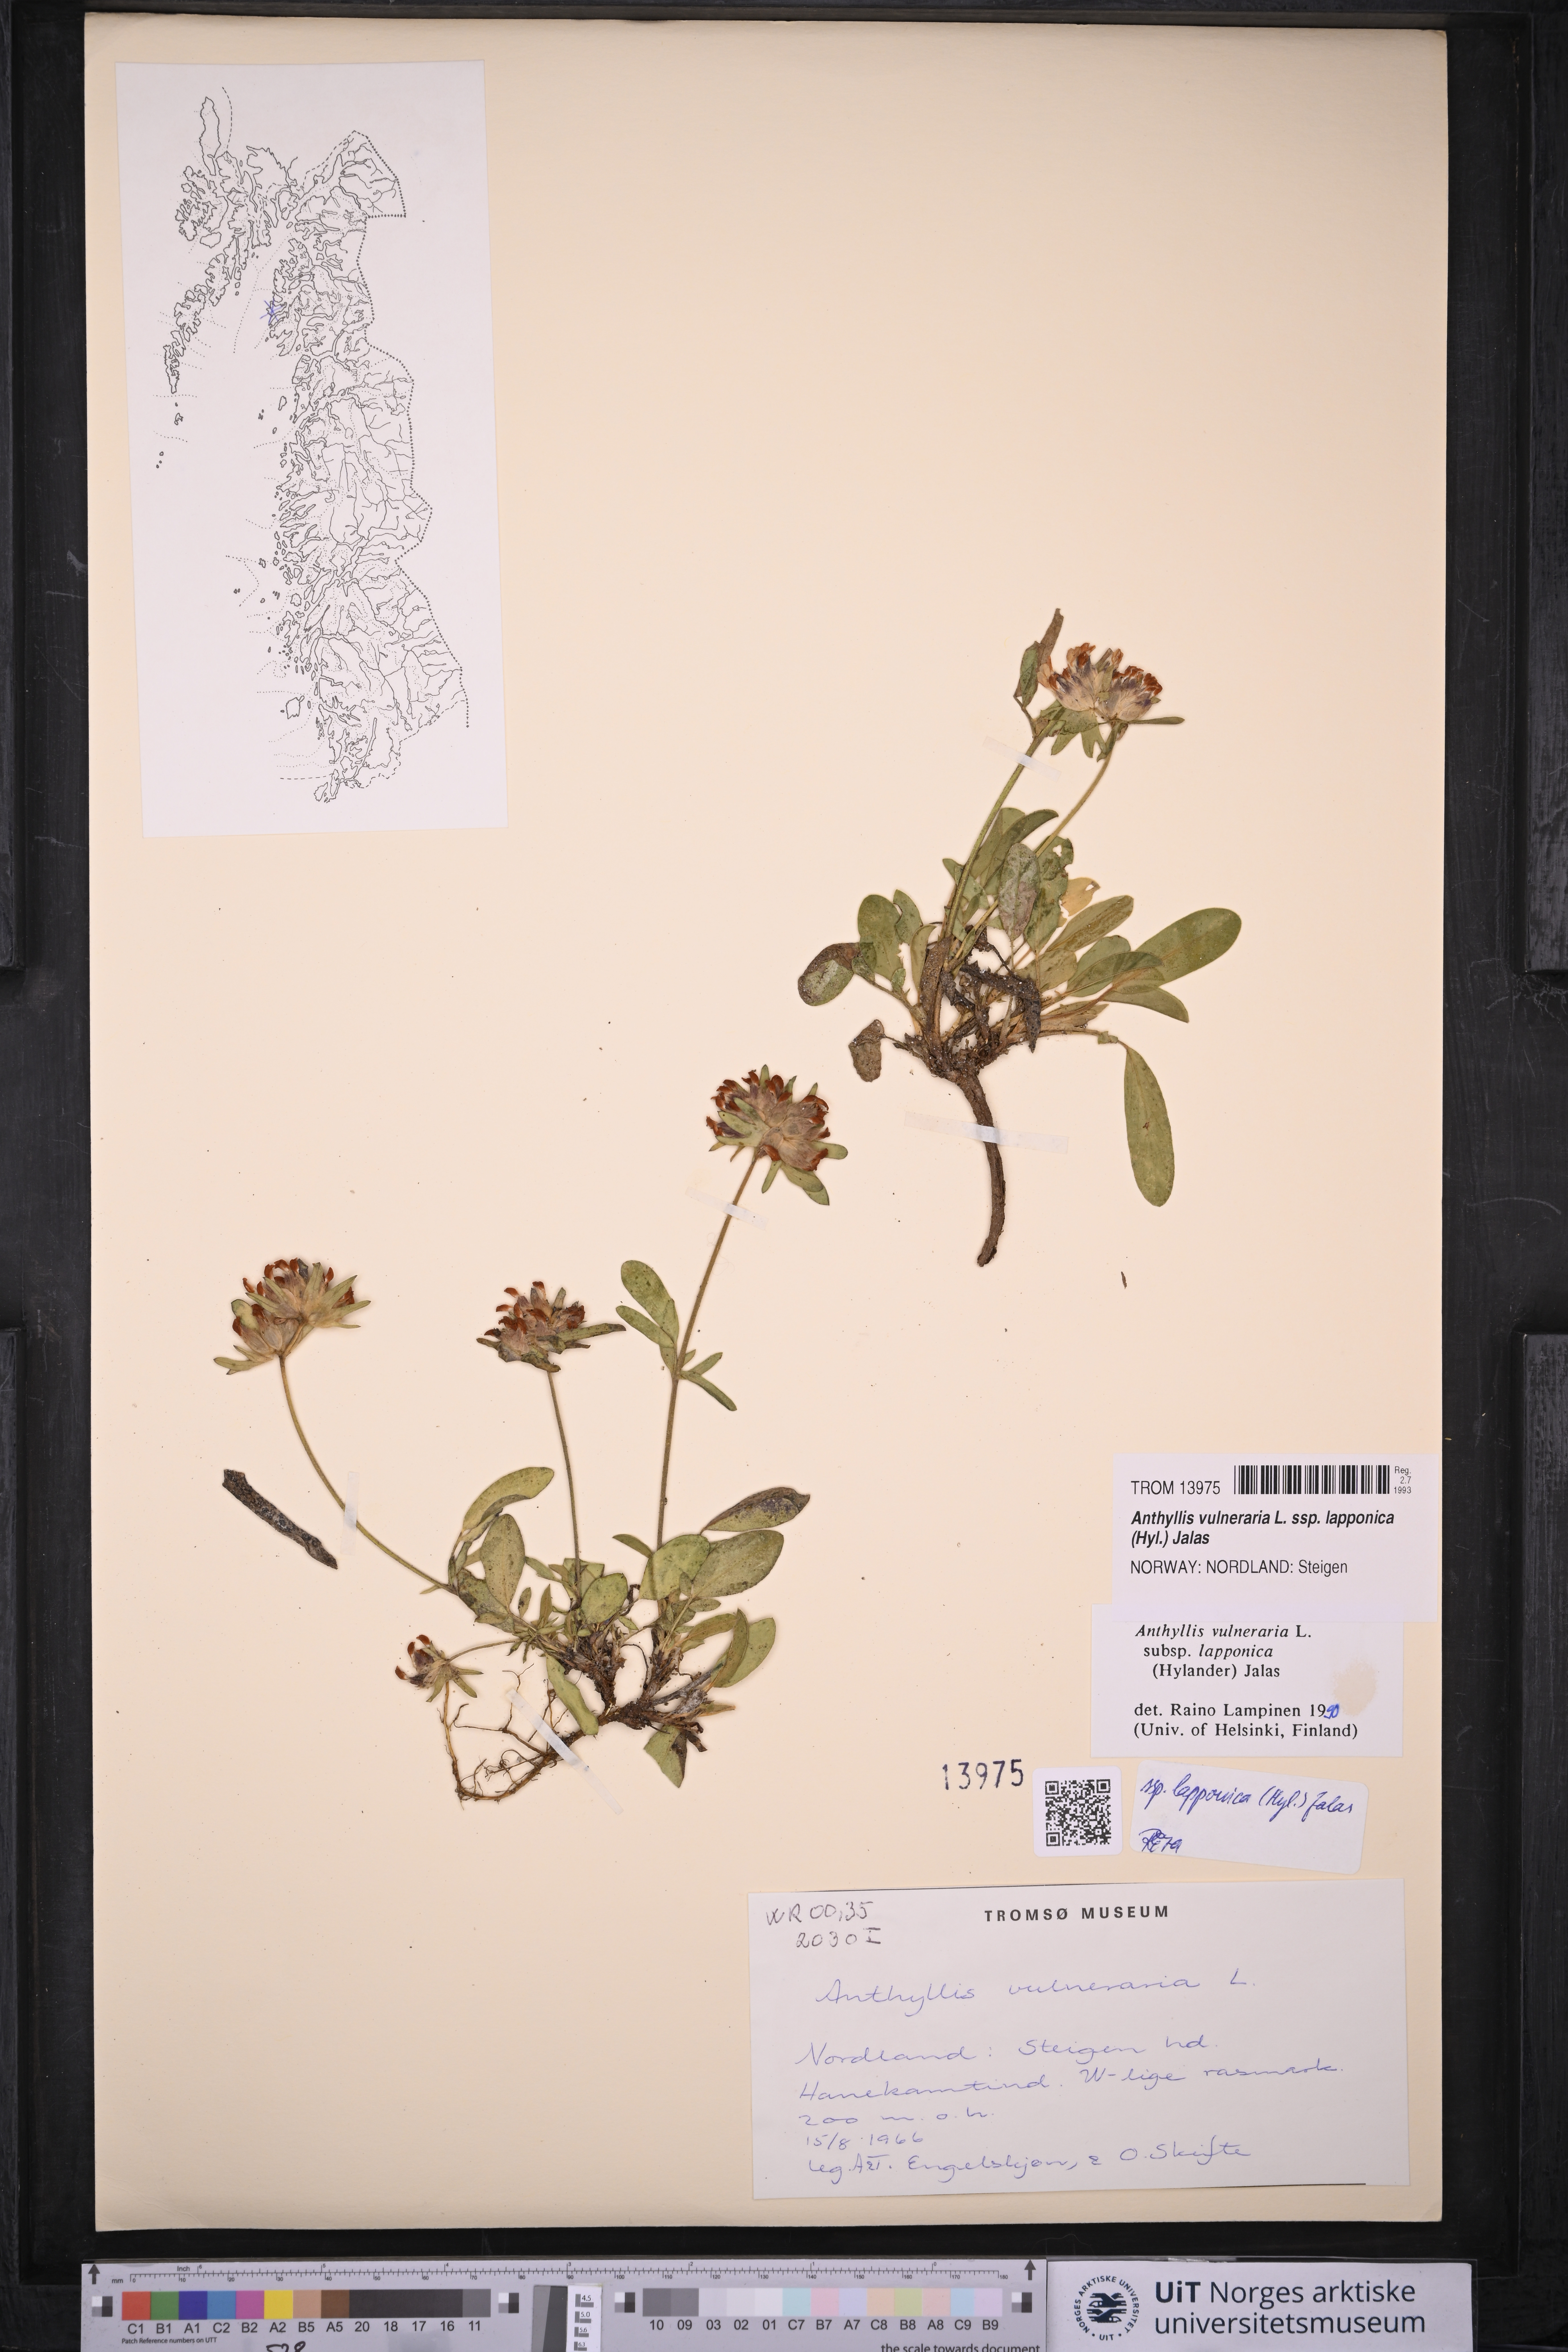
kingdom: Plantae
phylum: Tracheophyta
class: Magnoliopsida
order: Fabales
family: Fabaceae
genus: Anthyllis
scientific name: Anthyllis vulneraria
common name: Kidney vetch
